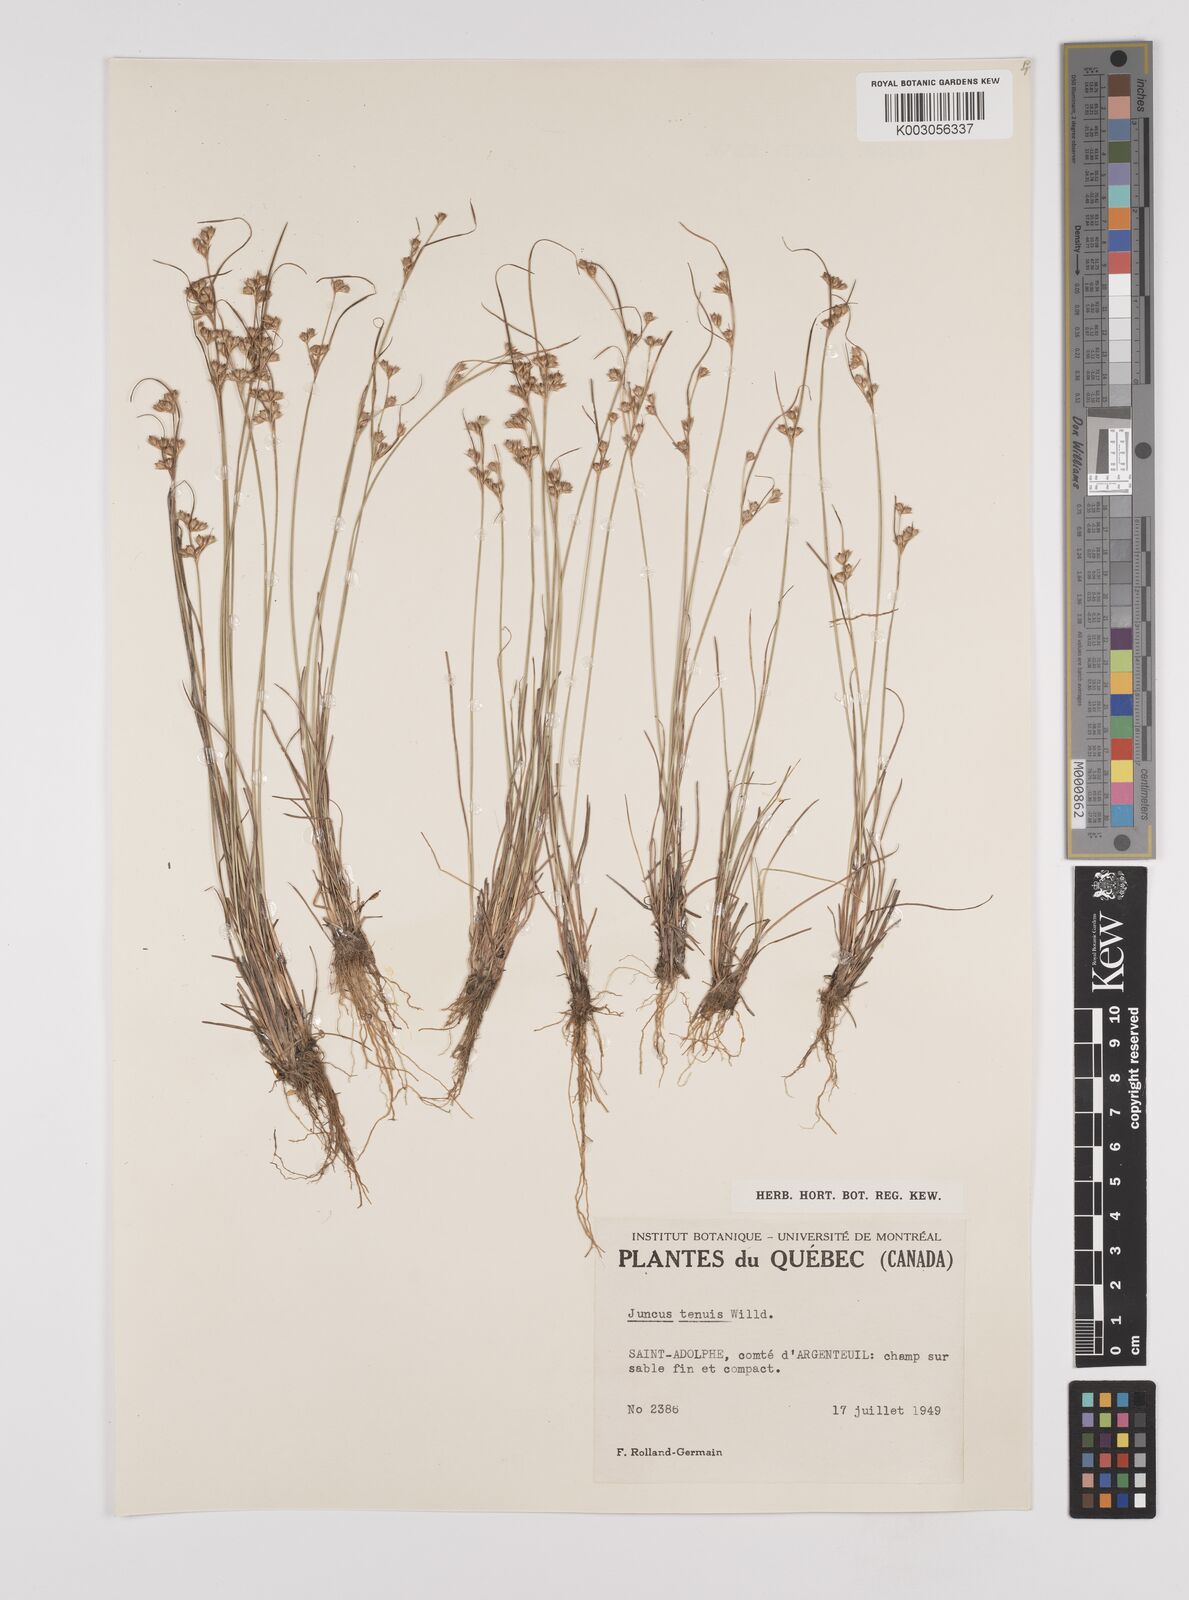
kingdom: Plantae
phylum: Tracheophyta
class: Liliopsida
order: Poales
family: Juncaceae
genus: Juncus
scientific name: Juncus tenuis
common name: Slender rush
